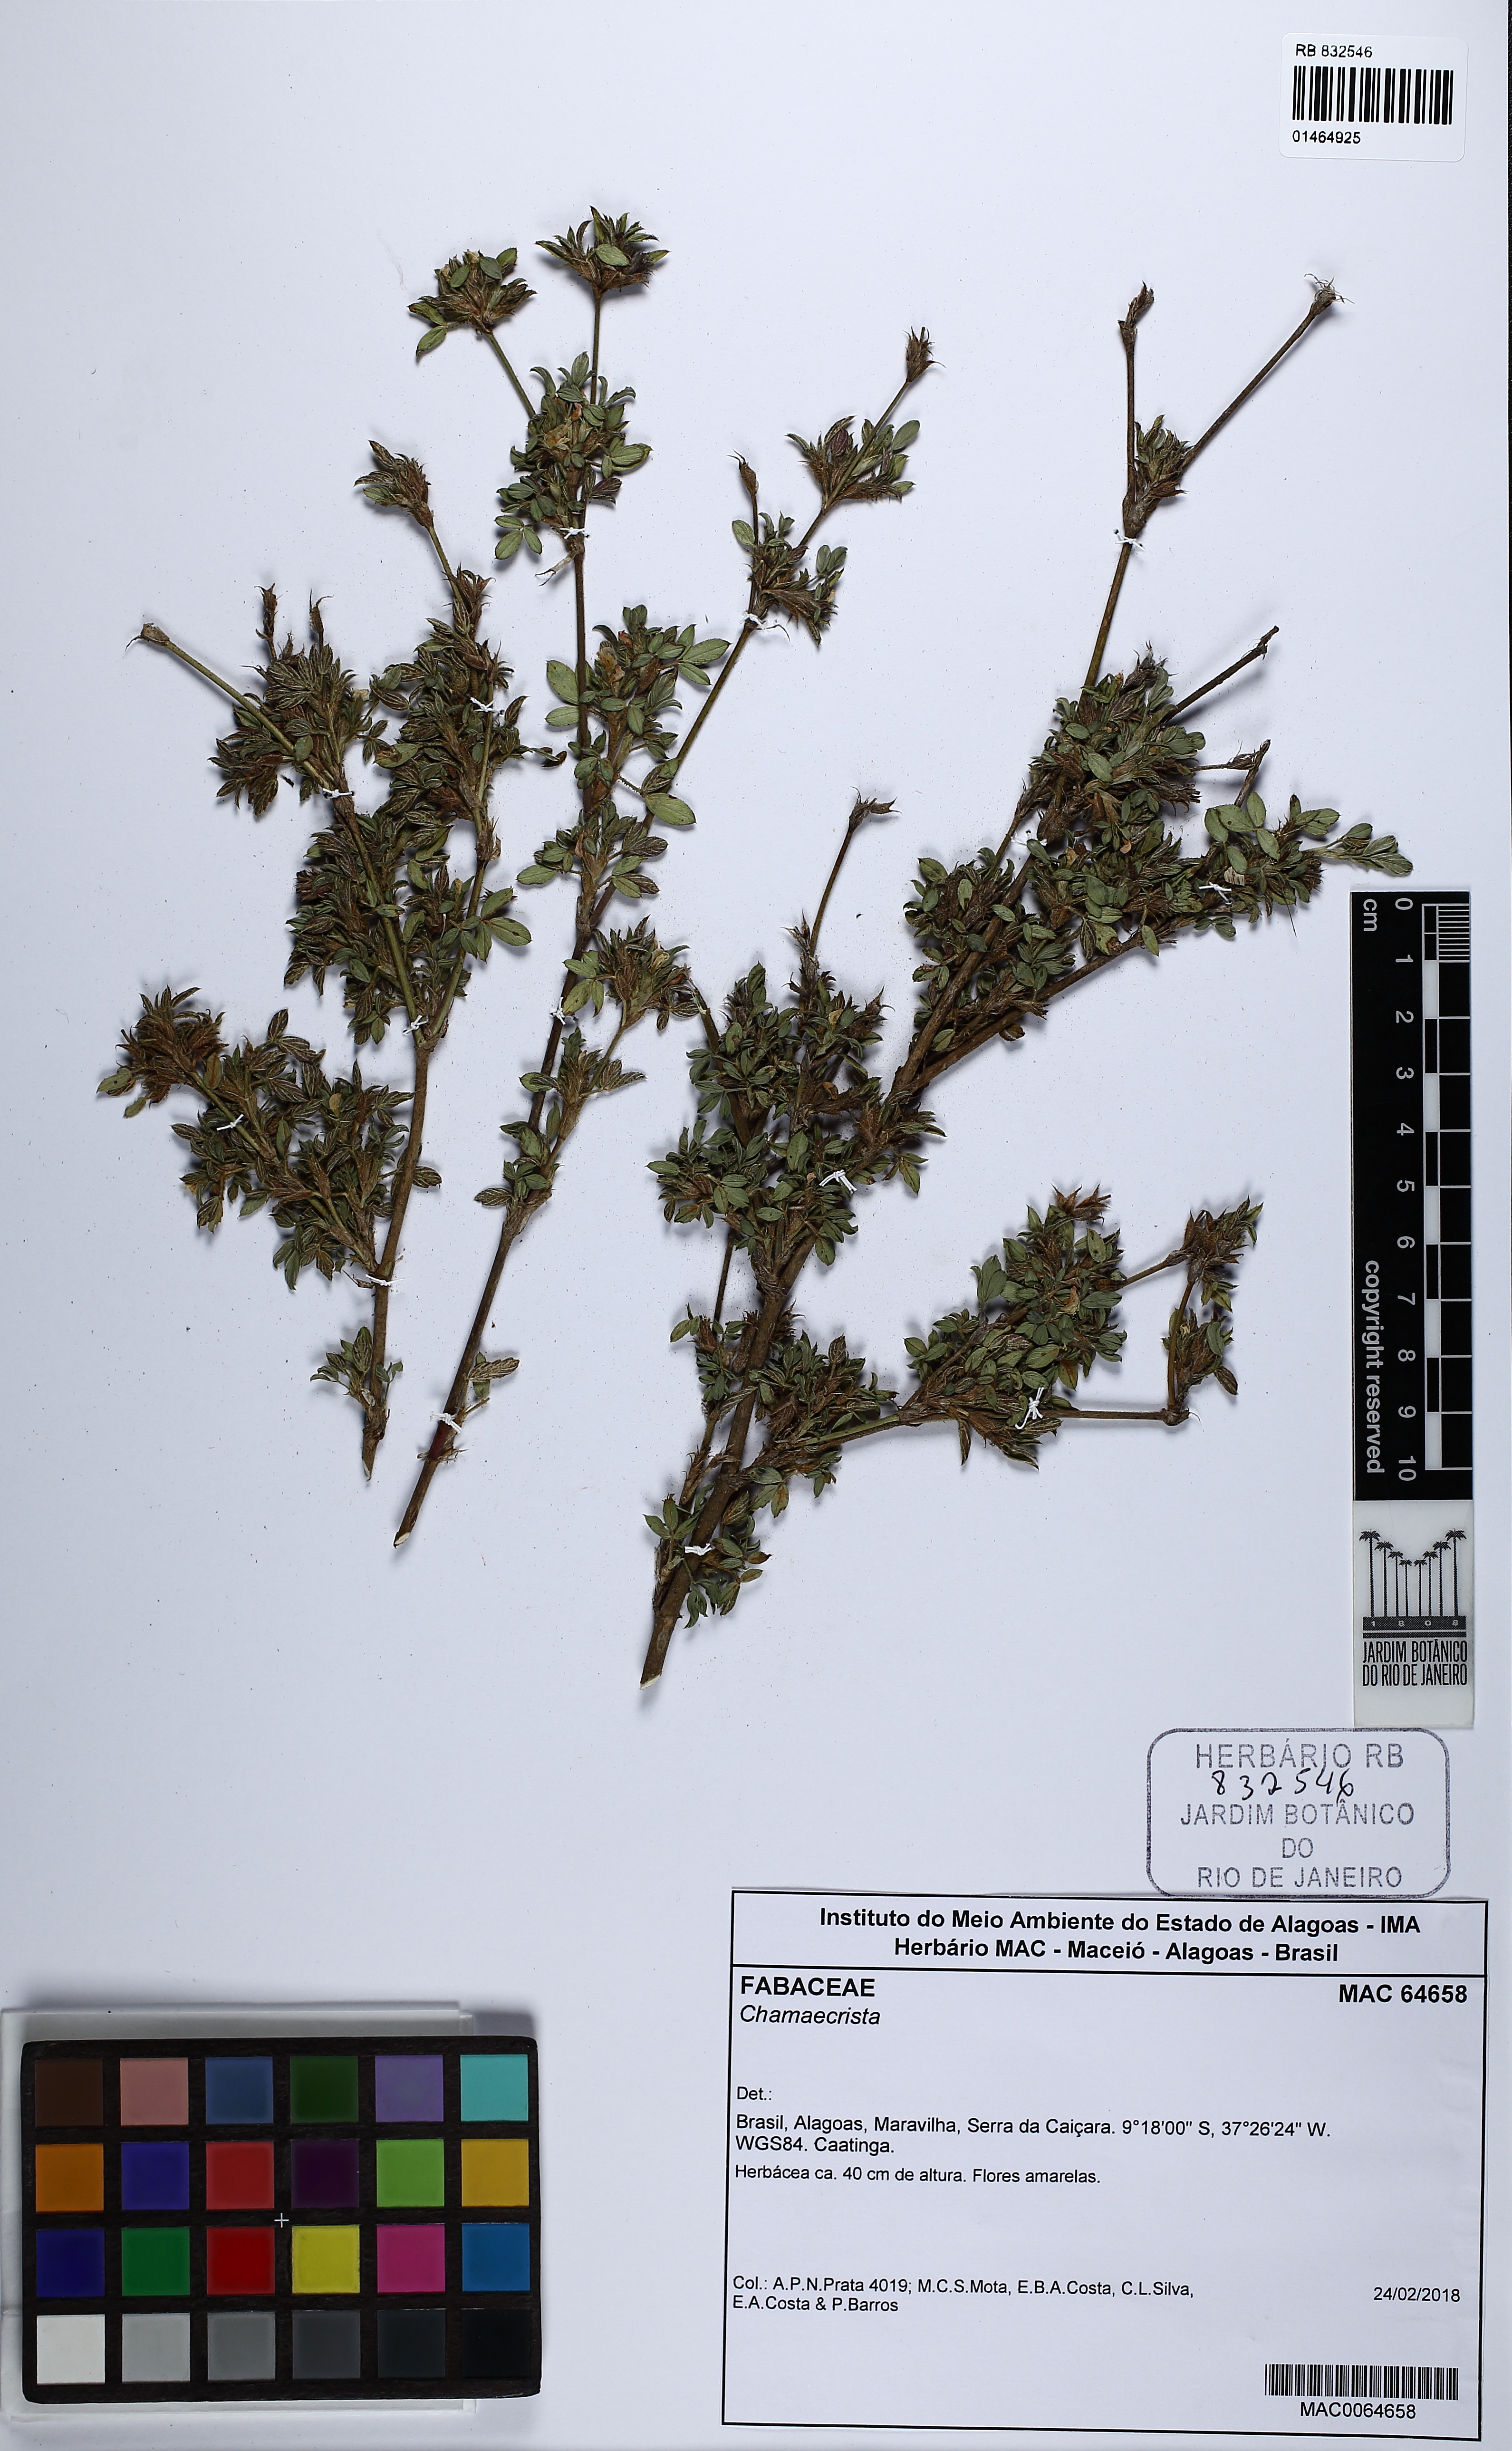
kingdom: Plantae
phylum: Tracheophyta
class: Magnoliopsida
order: Fabales
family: Fabaceae
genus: Chamaecrista
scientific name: Chamaecrista
